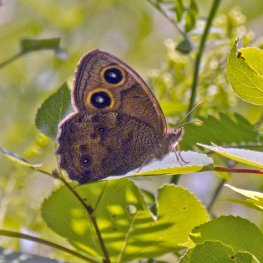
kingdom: Animalia
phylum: Arthropoda
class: Insecta
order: Lepidoptera
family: Nymphalidae
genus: Cercyonis
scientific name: Cercyonis pegala
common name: Common Wood-Nymph
